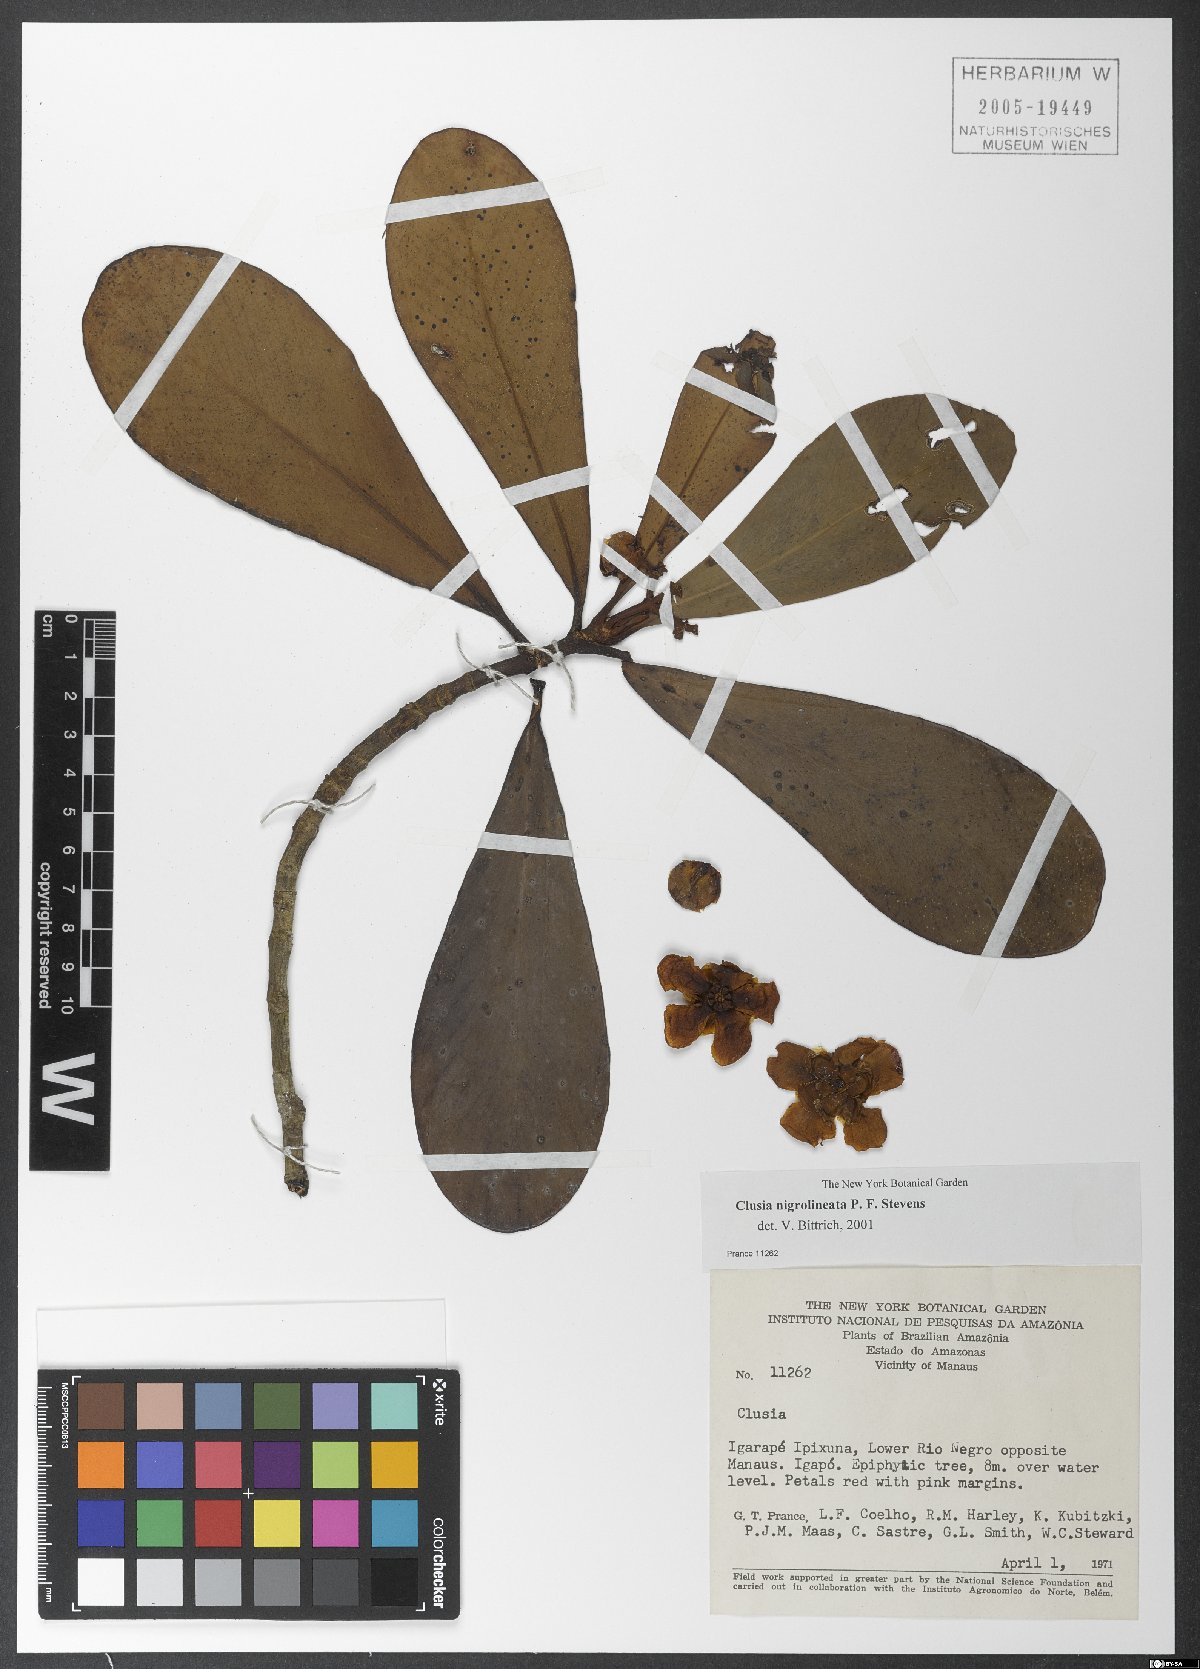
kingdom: Plantae
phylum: Tracheophyta
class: Magnoliopsida
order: Malpighiales
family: Clusiaceae
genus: Clusia
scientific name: Clusia nigrolineata
